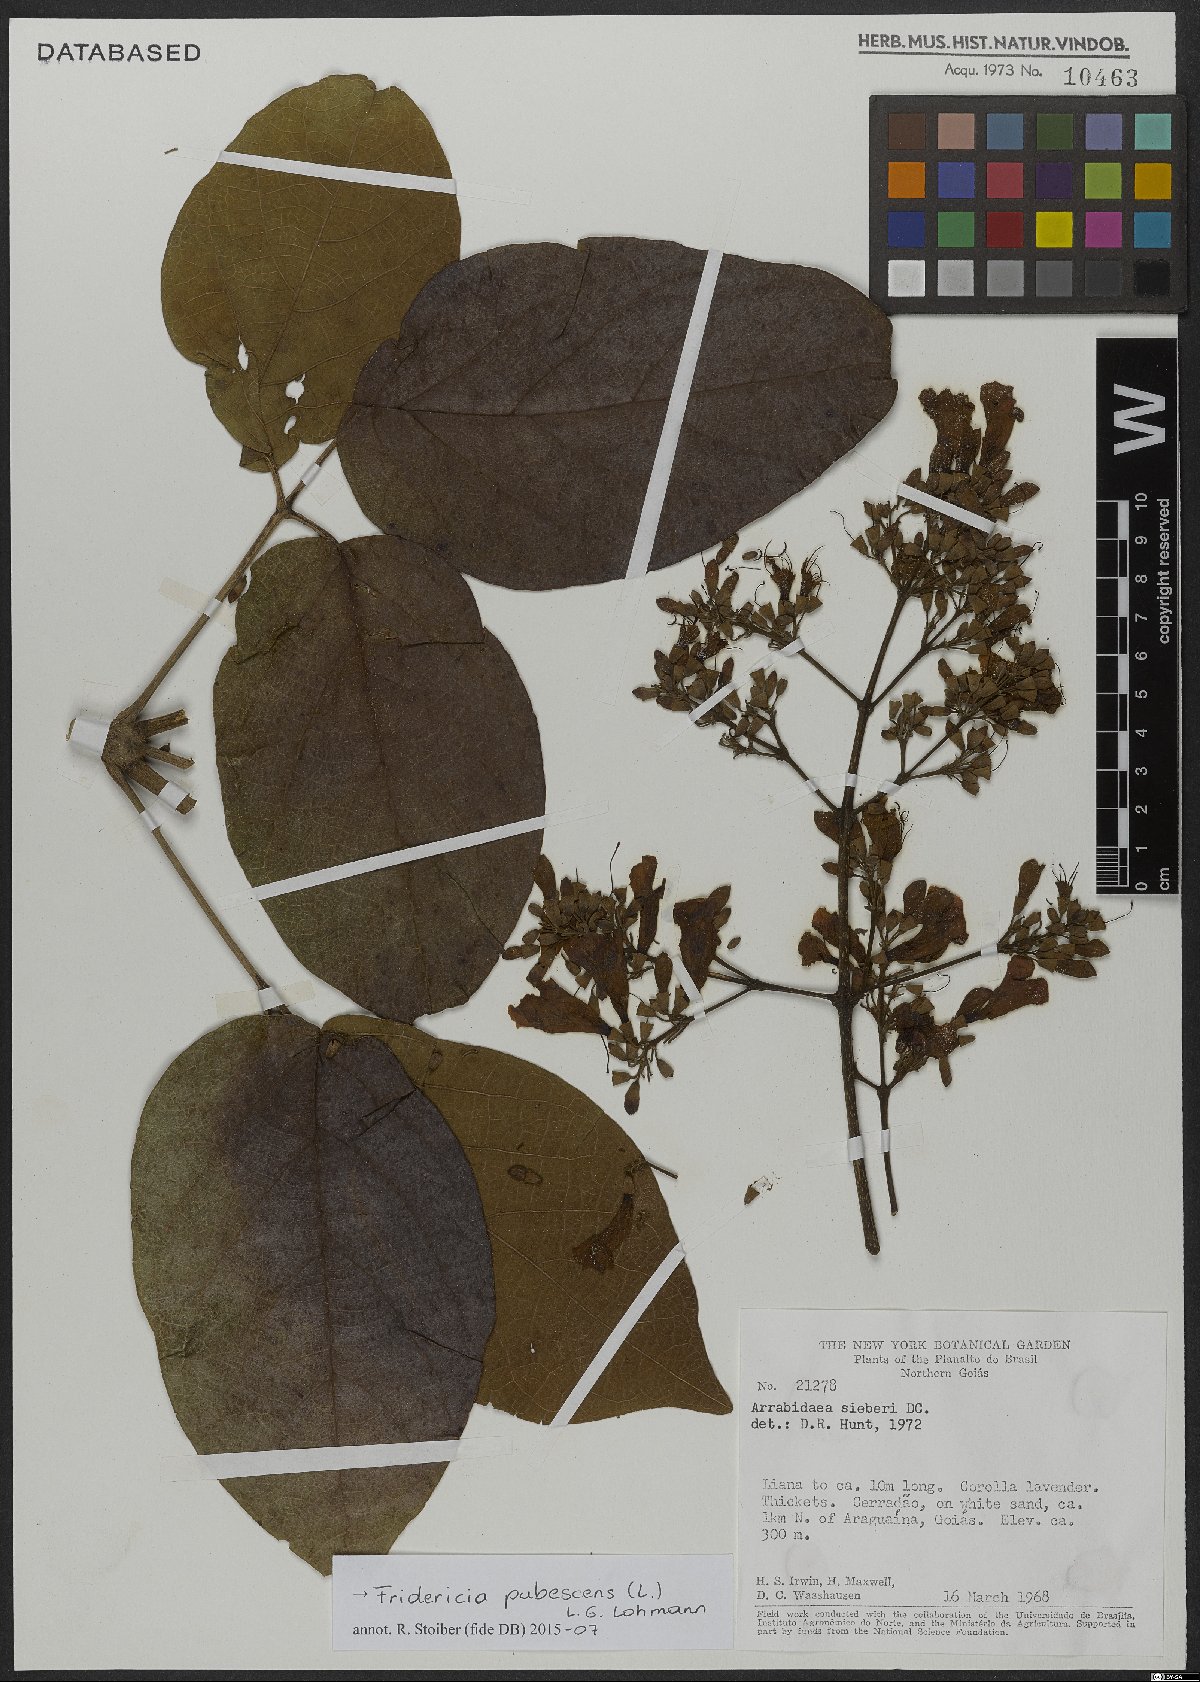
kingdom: Plantae
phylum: Tracheophyta
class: Magnoliopsida
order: Lamiales
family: Bignoniaceae
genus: Fridericia
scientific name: Fridericia pubescens
